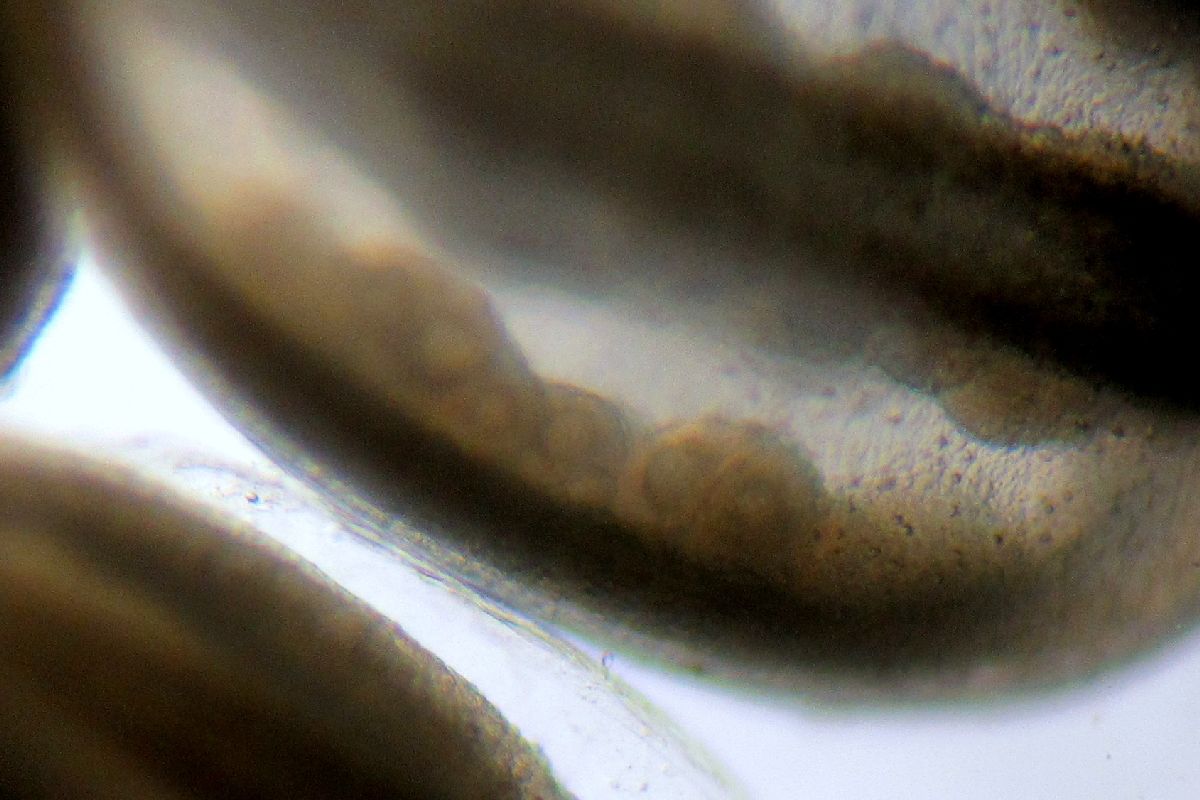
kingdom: Animalia
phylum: Cnidaria
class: Hydrozoa
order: Limnomedusae
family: Monobrachiidae
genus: Monobrachium
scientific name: Monobrachium parasitum
